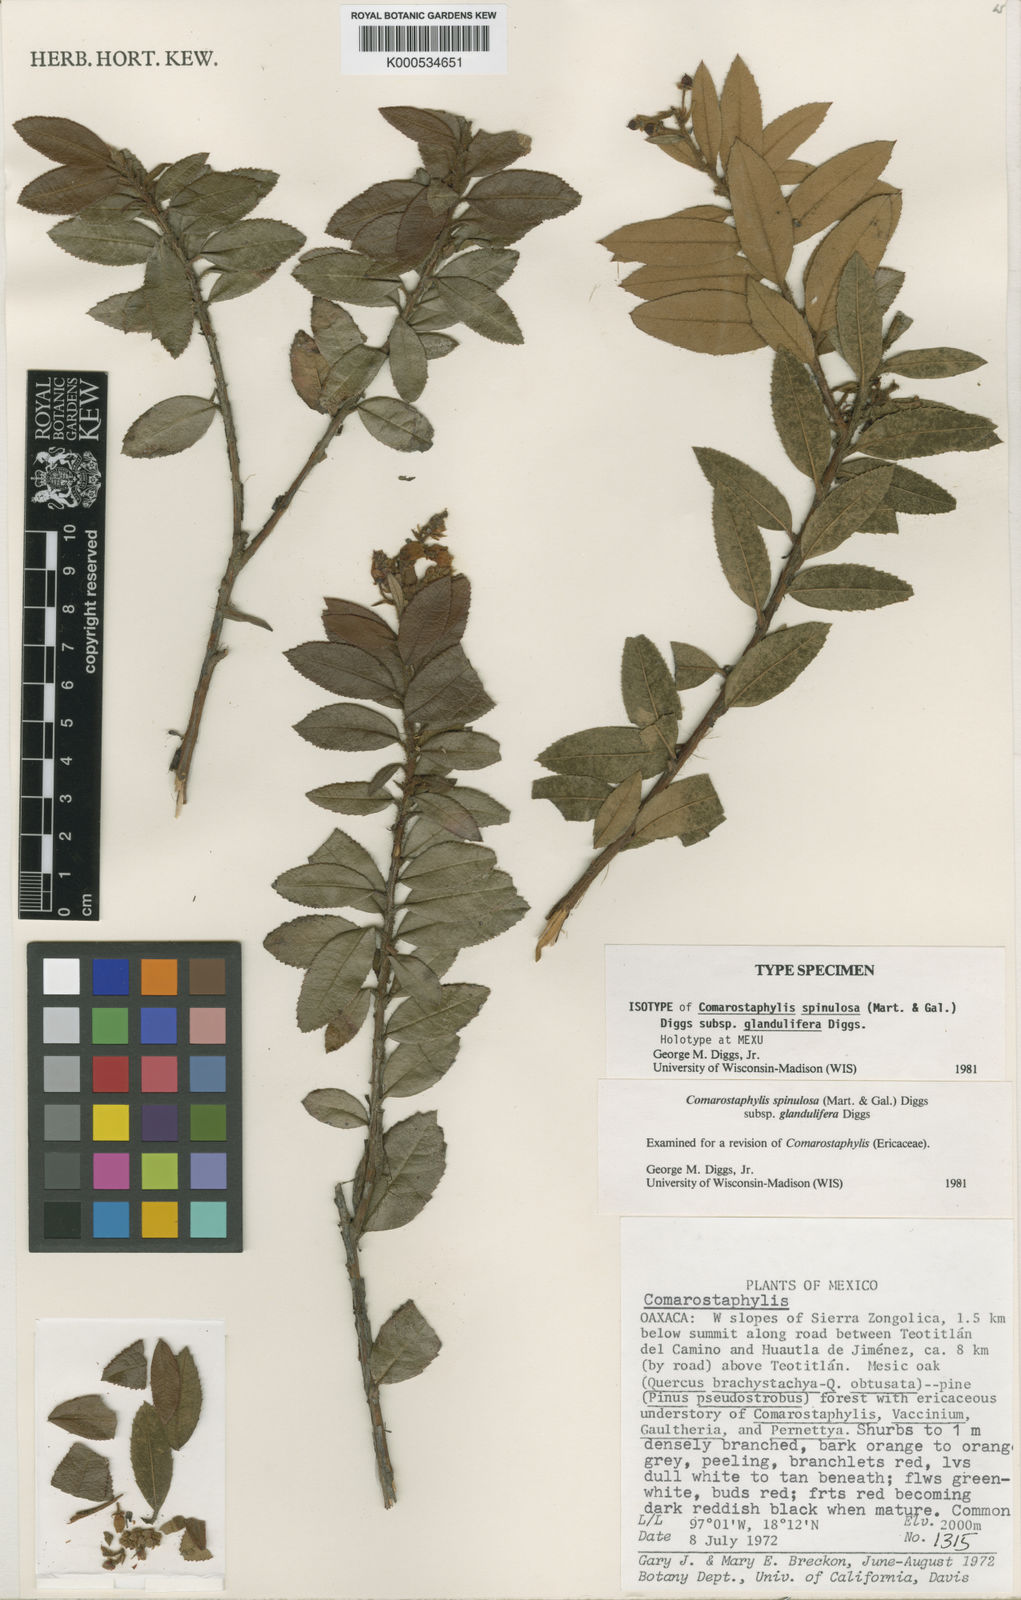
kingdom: Plantae
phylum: Tracheophyta
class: Magnoliopsida
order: Ericales
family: Ericaceae
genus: Comarostaphylis
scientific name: Comarostaphylis spinulosa
